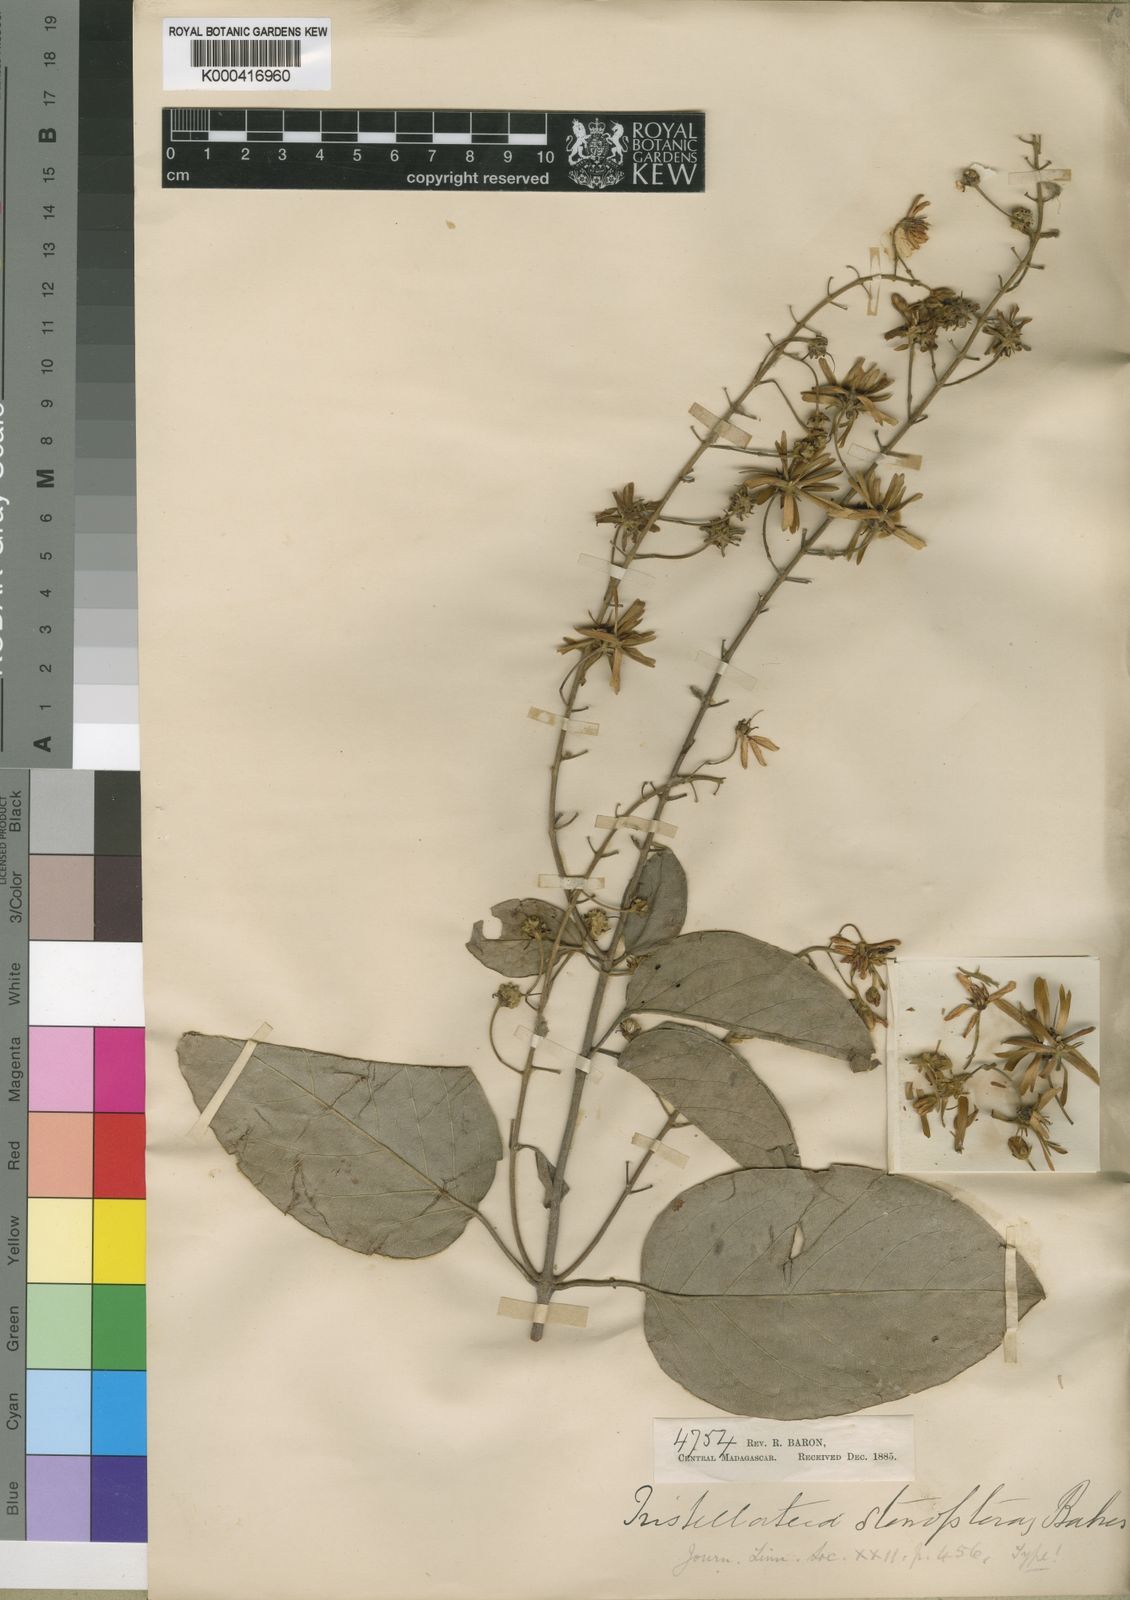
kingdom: Plantae
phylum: Tracheophyta
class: Magnoliopsida
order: Malpighiales
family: Malpighiaceae
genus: Tristellateia
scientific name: Tristellateia bojeriana
